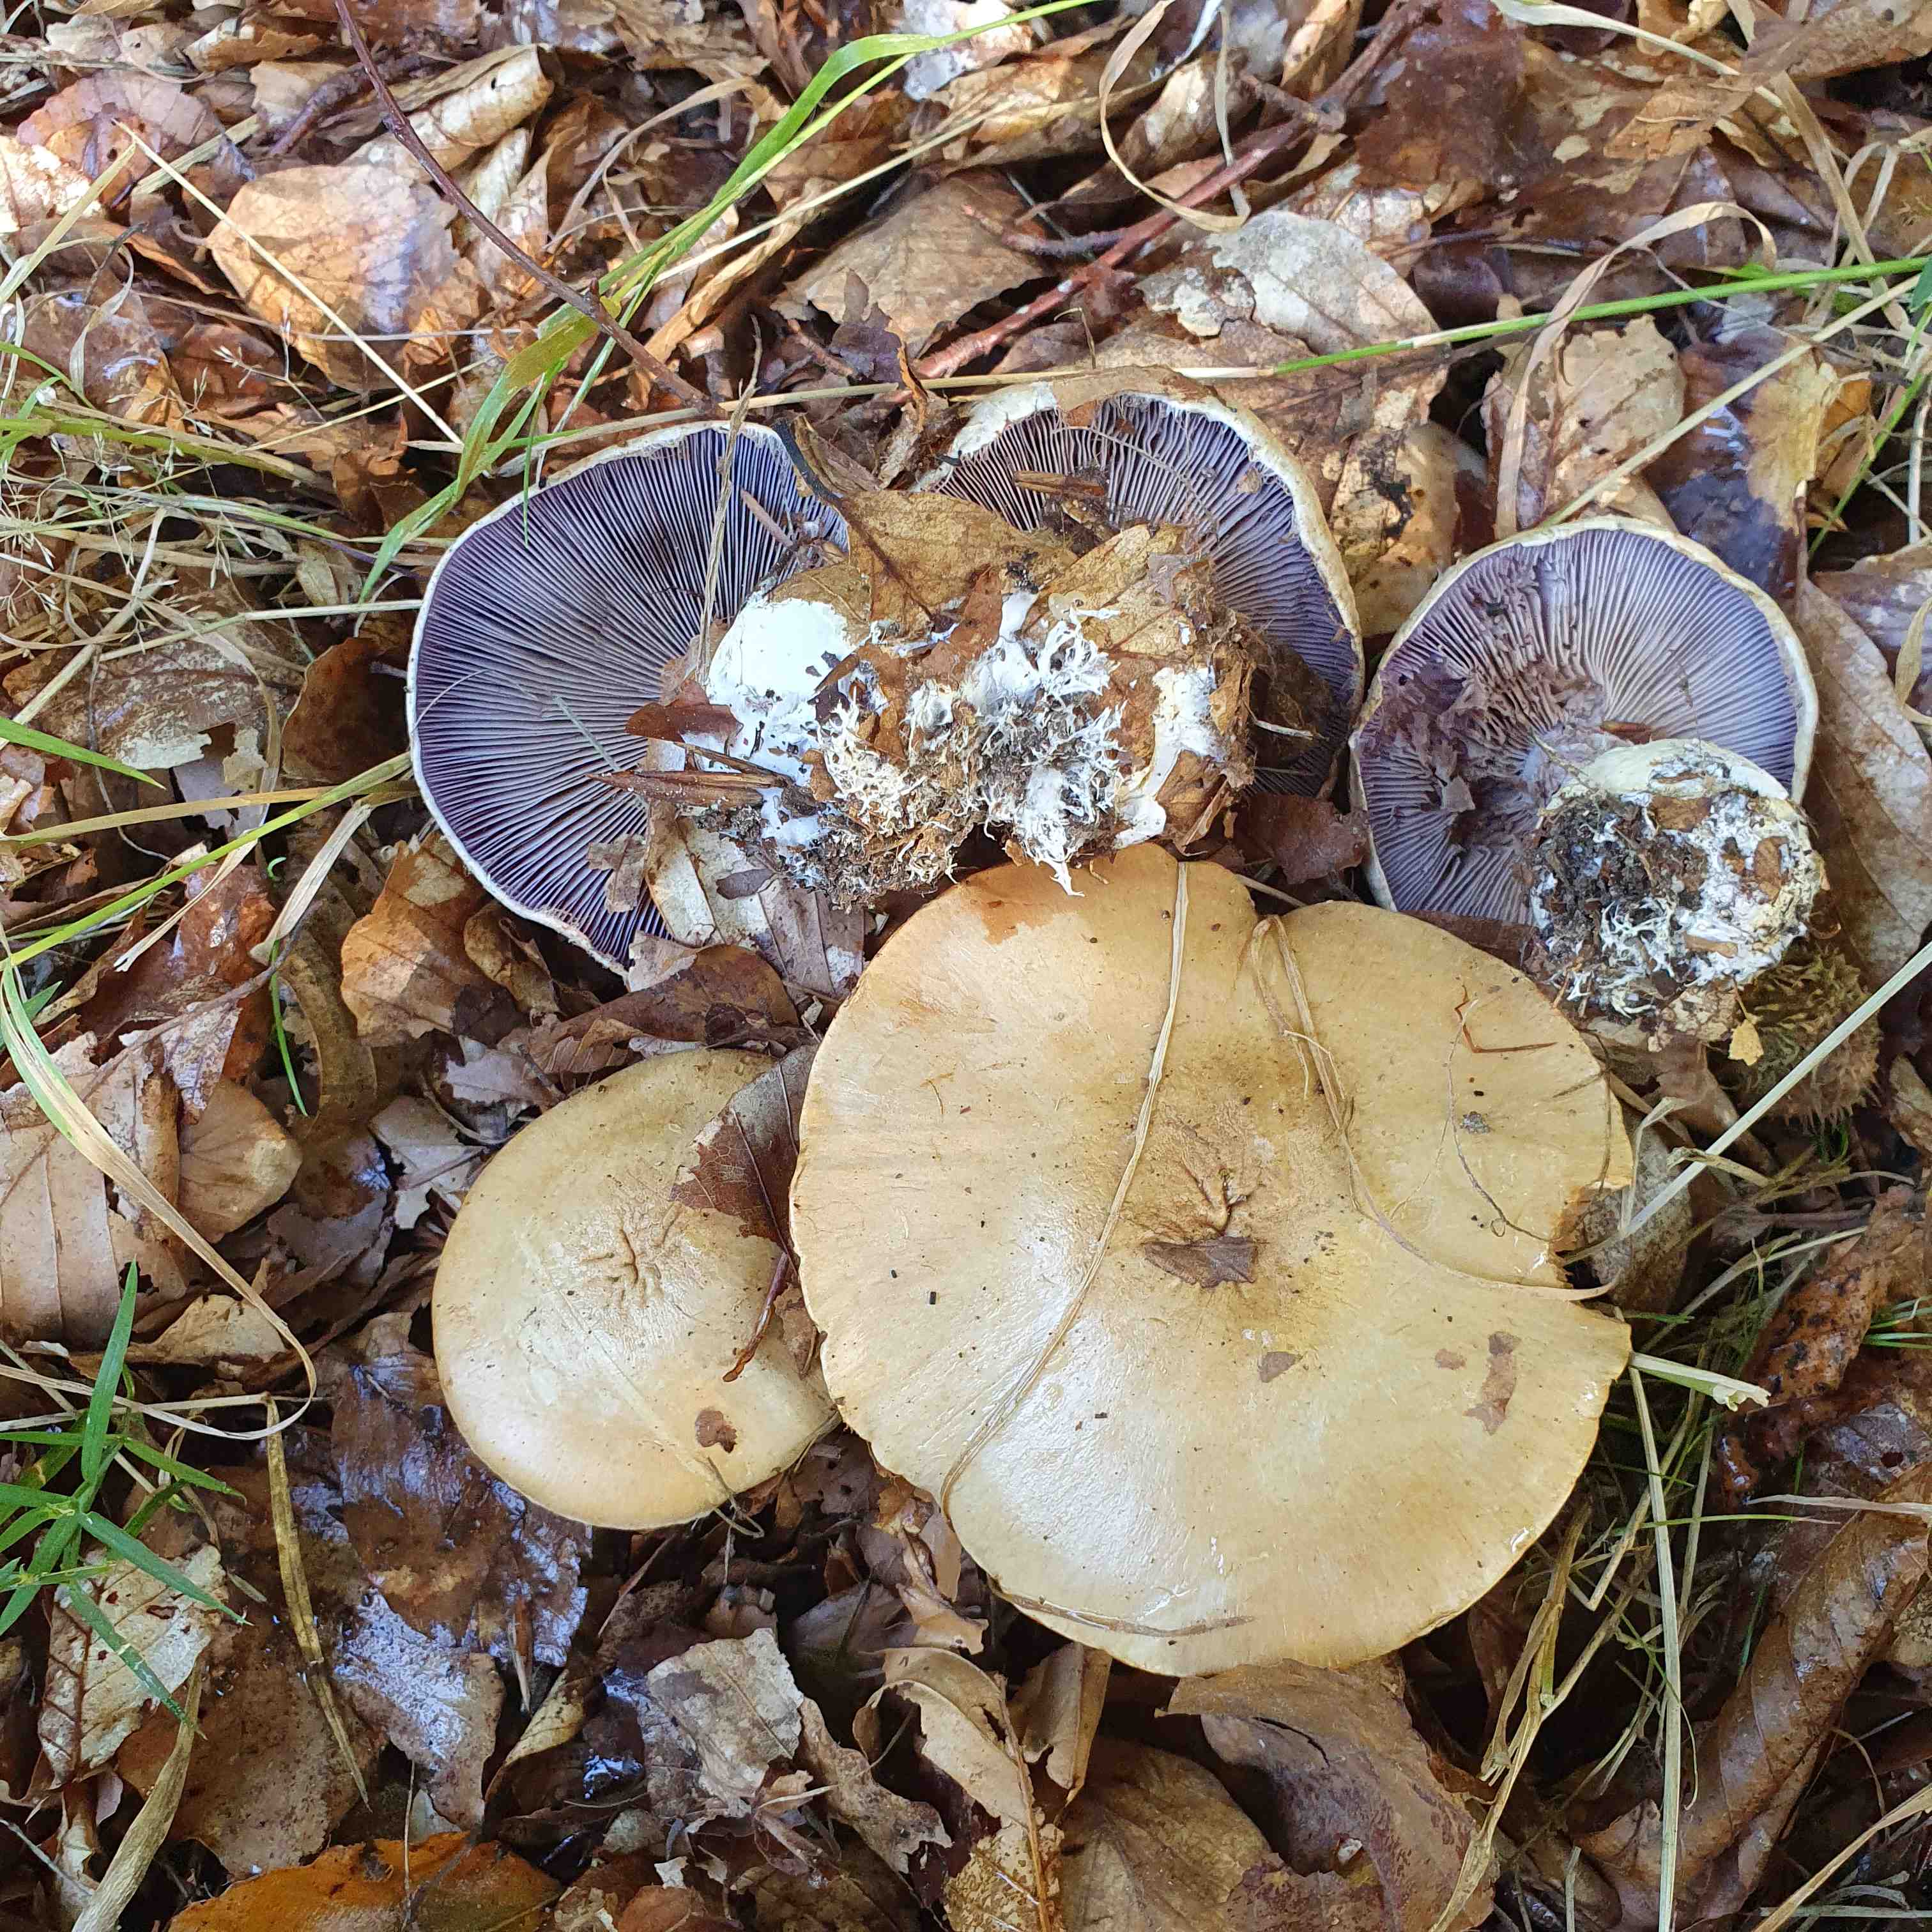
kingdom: Fungi
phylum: Basidiomycota
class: Agaricomycetes
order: Agaricales
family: Cortinariaceae
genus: Cortinarius
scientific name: Cortinarius anserinus
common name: bøge-slørhat
